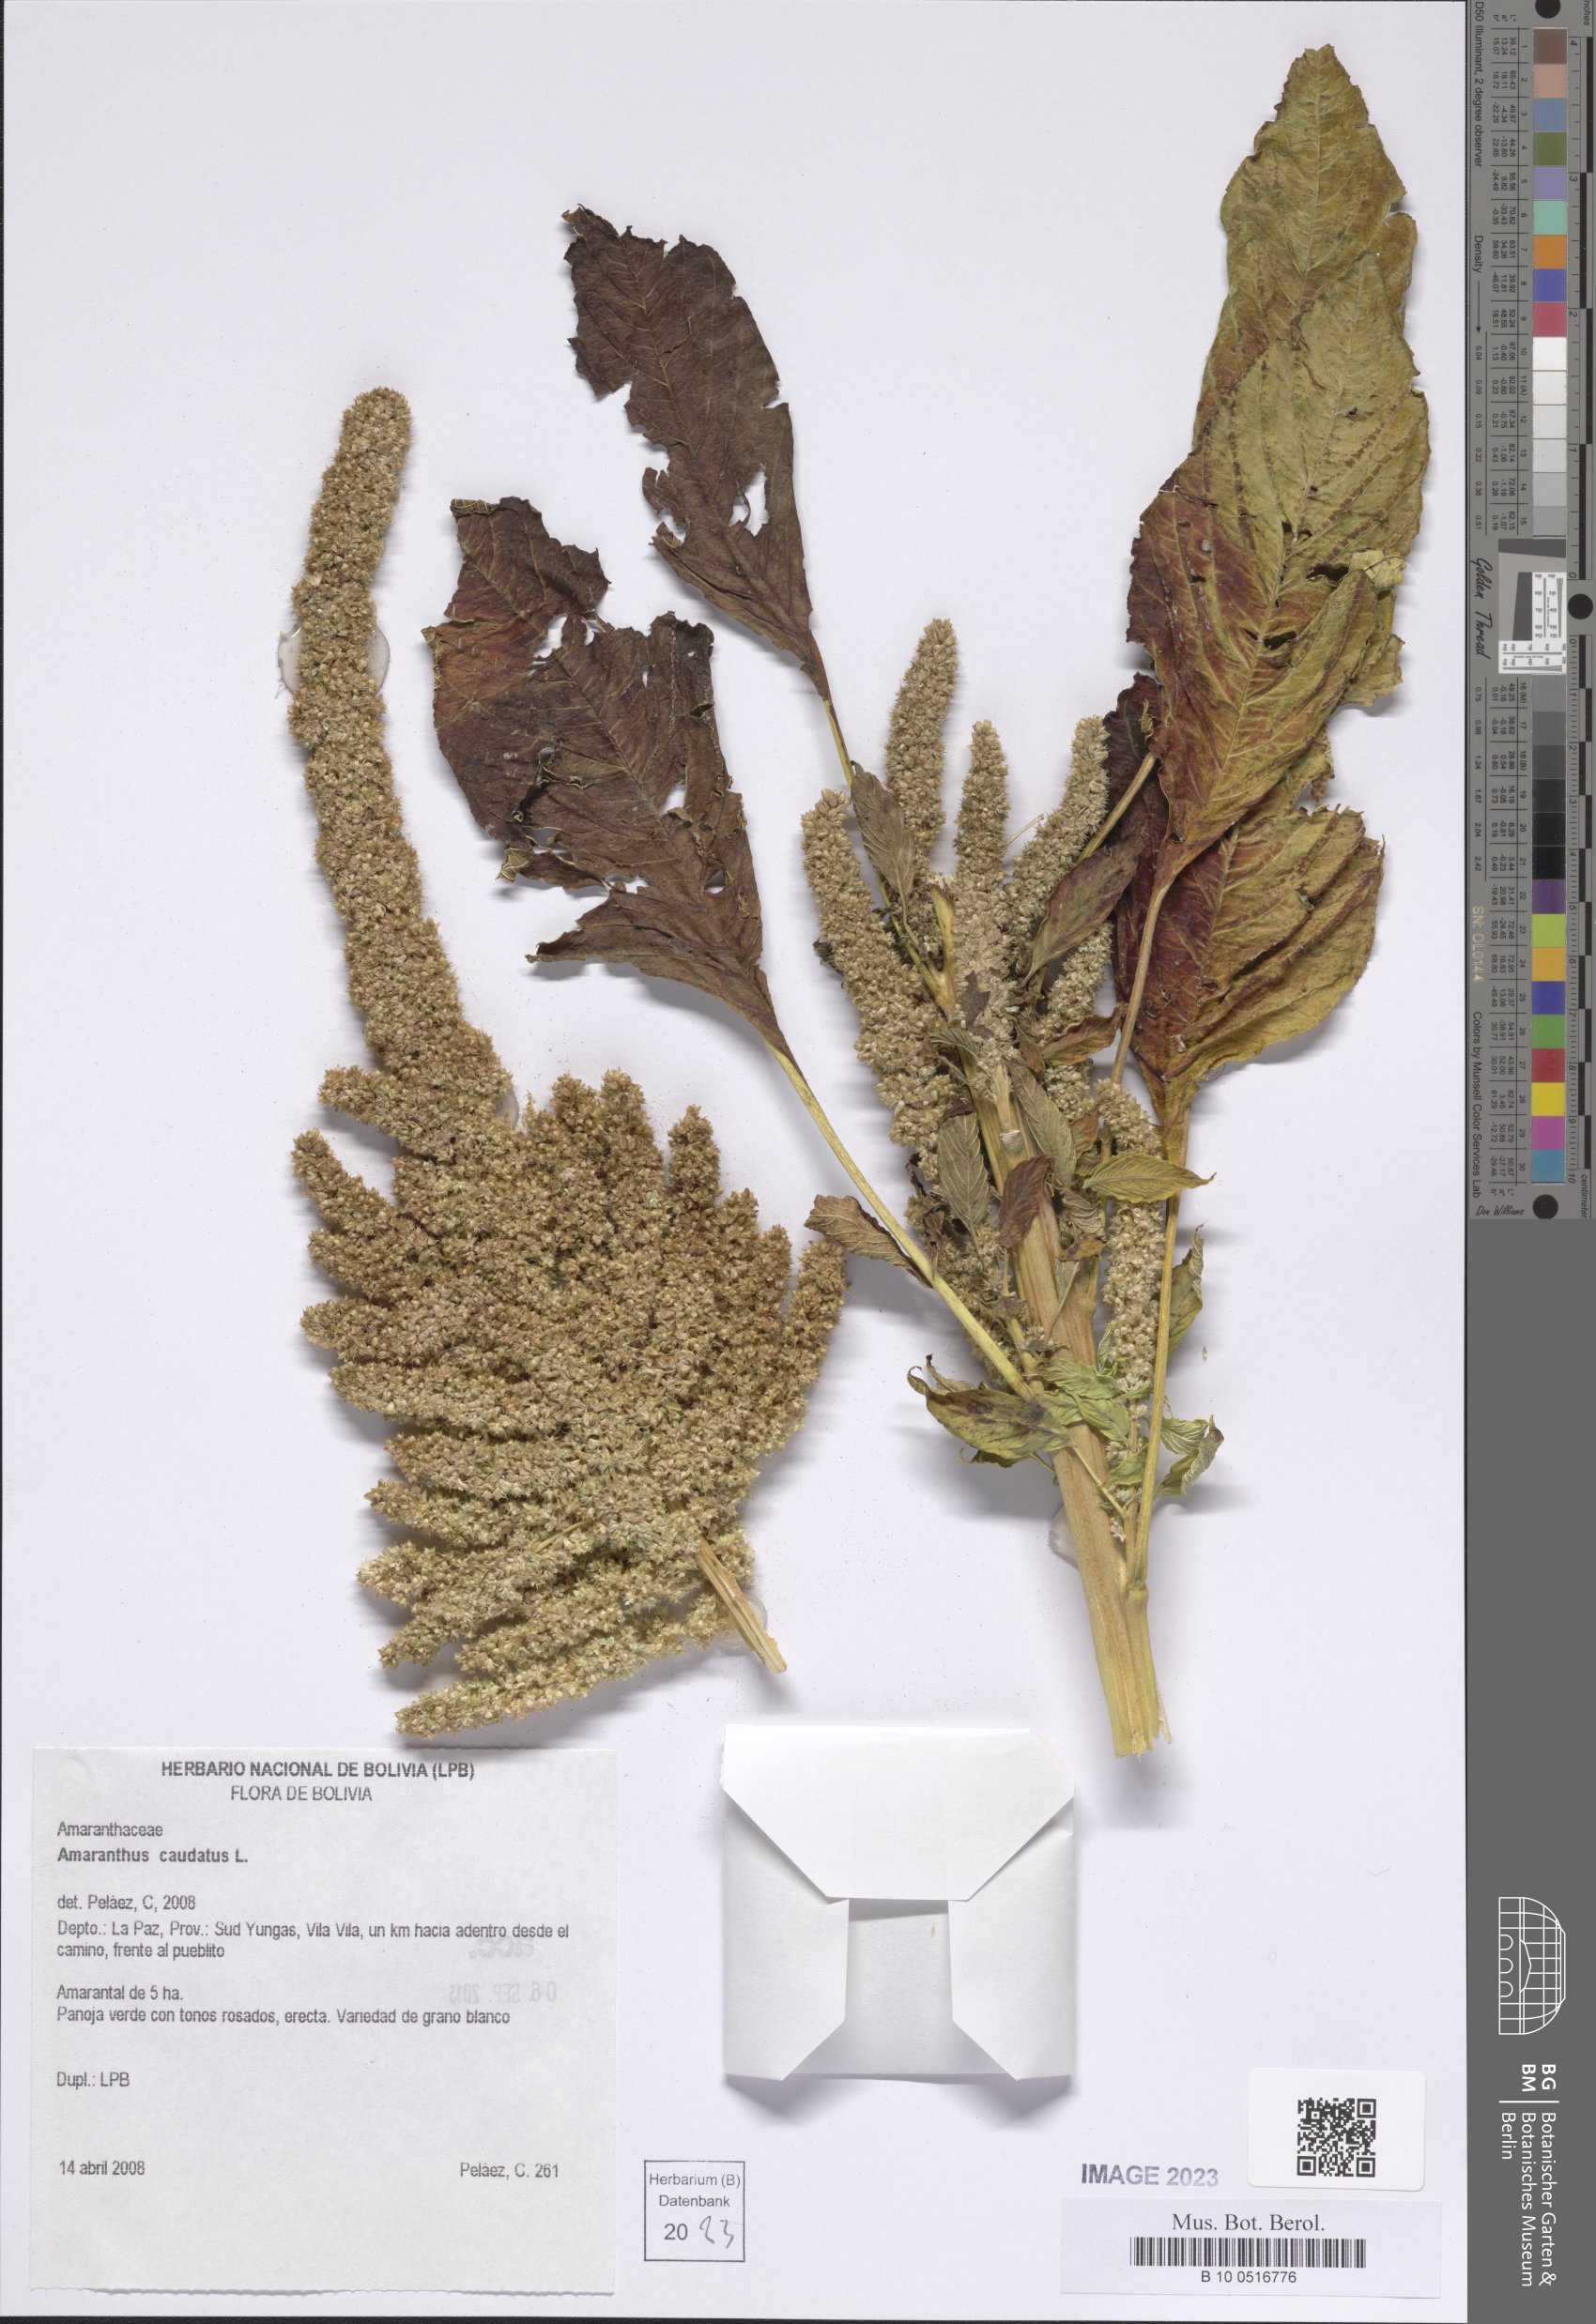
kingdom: Plantae
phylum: Tracheophyta
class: Magnoliopsida
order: Caryophyllales
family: Amaranthaceae
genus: Amaranthus
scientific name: Amaranthus caudatus
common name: Love-lies-bleeding
